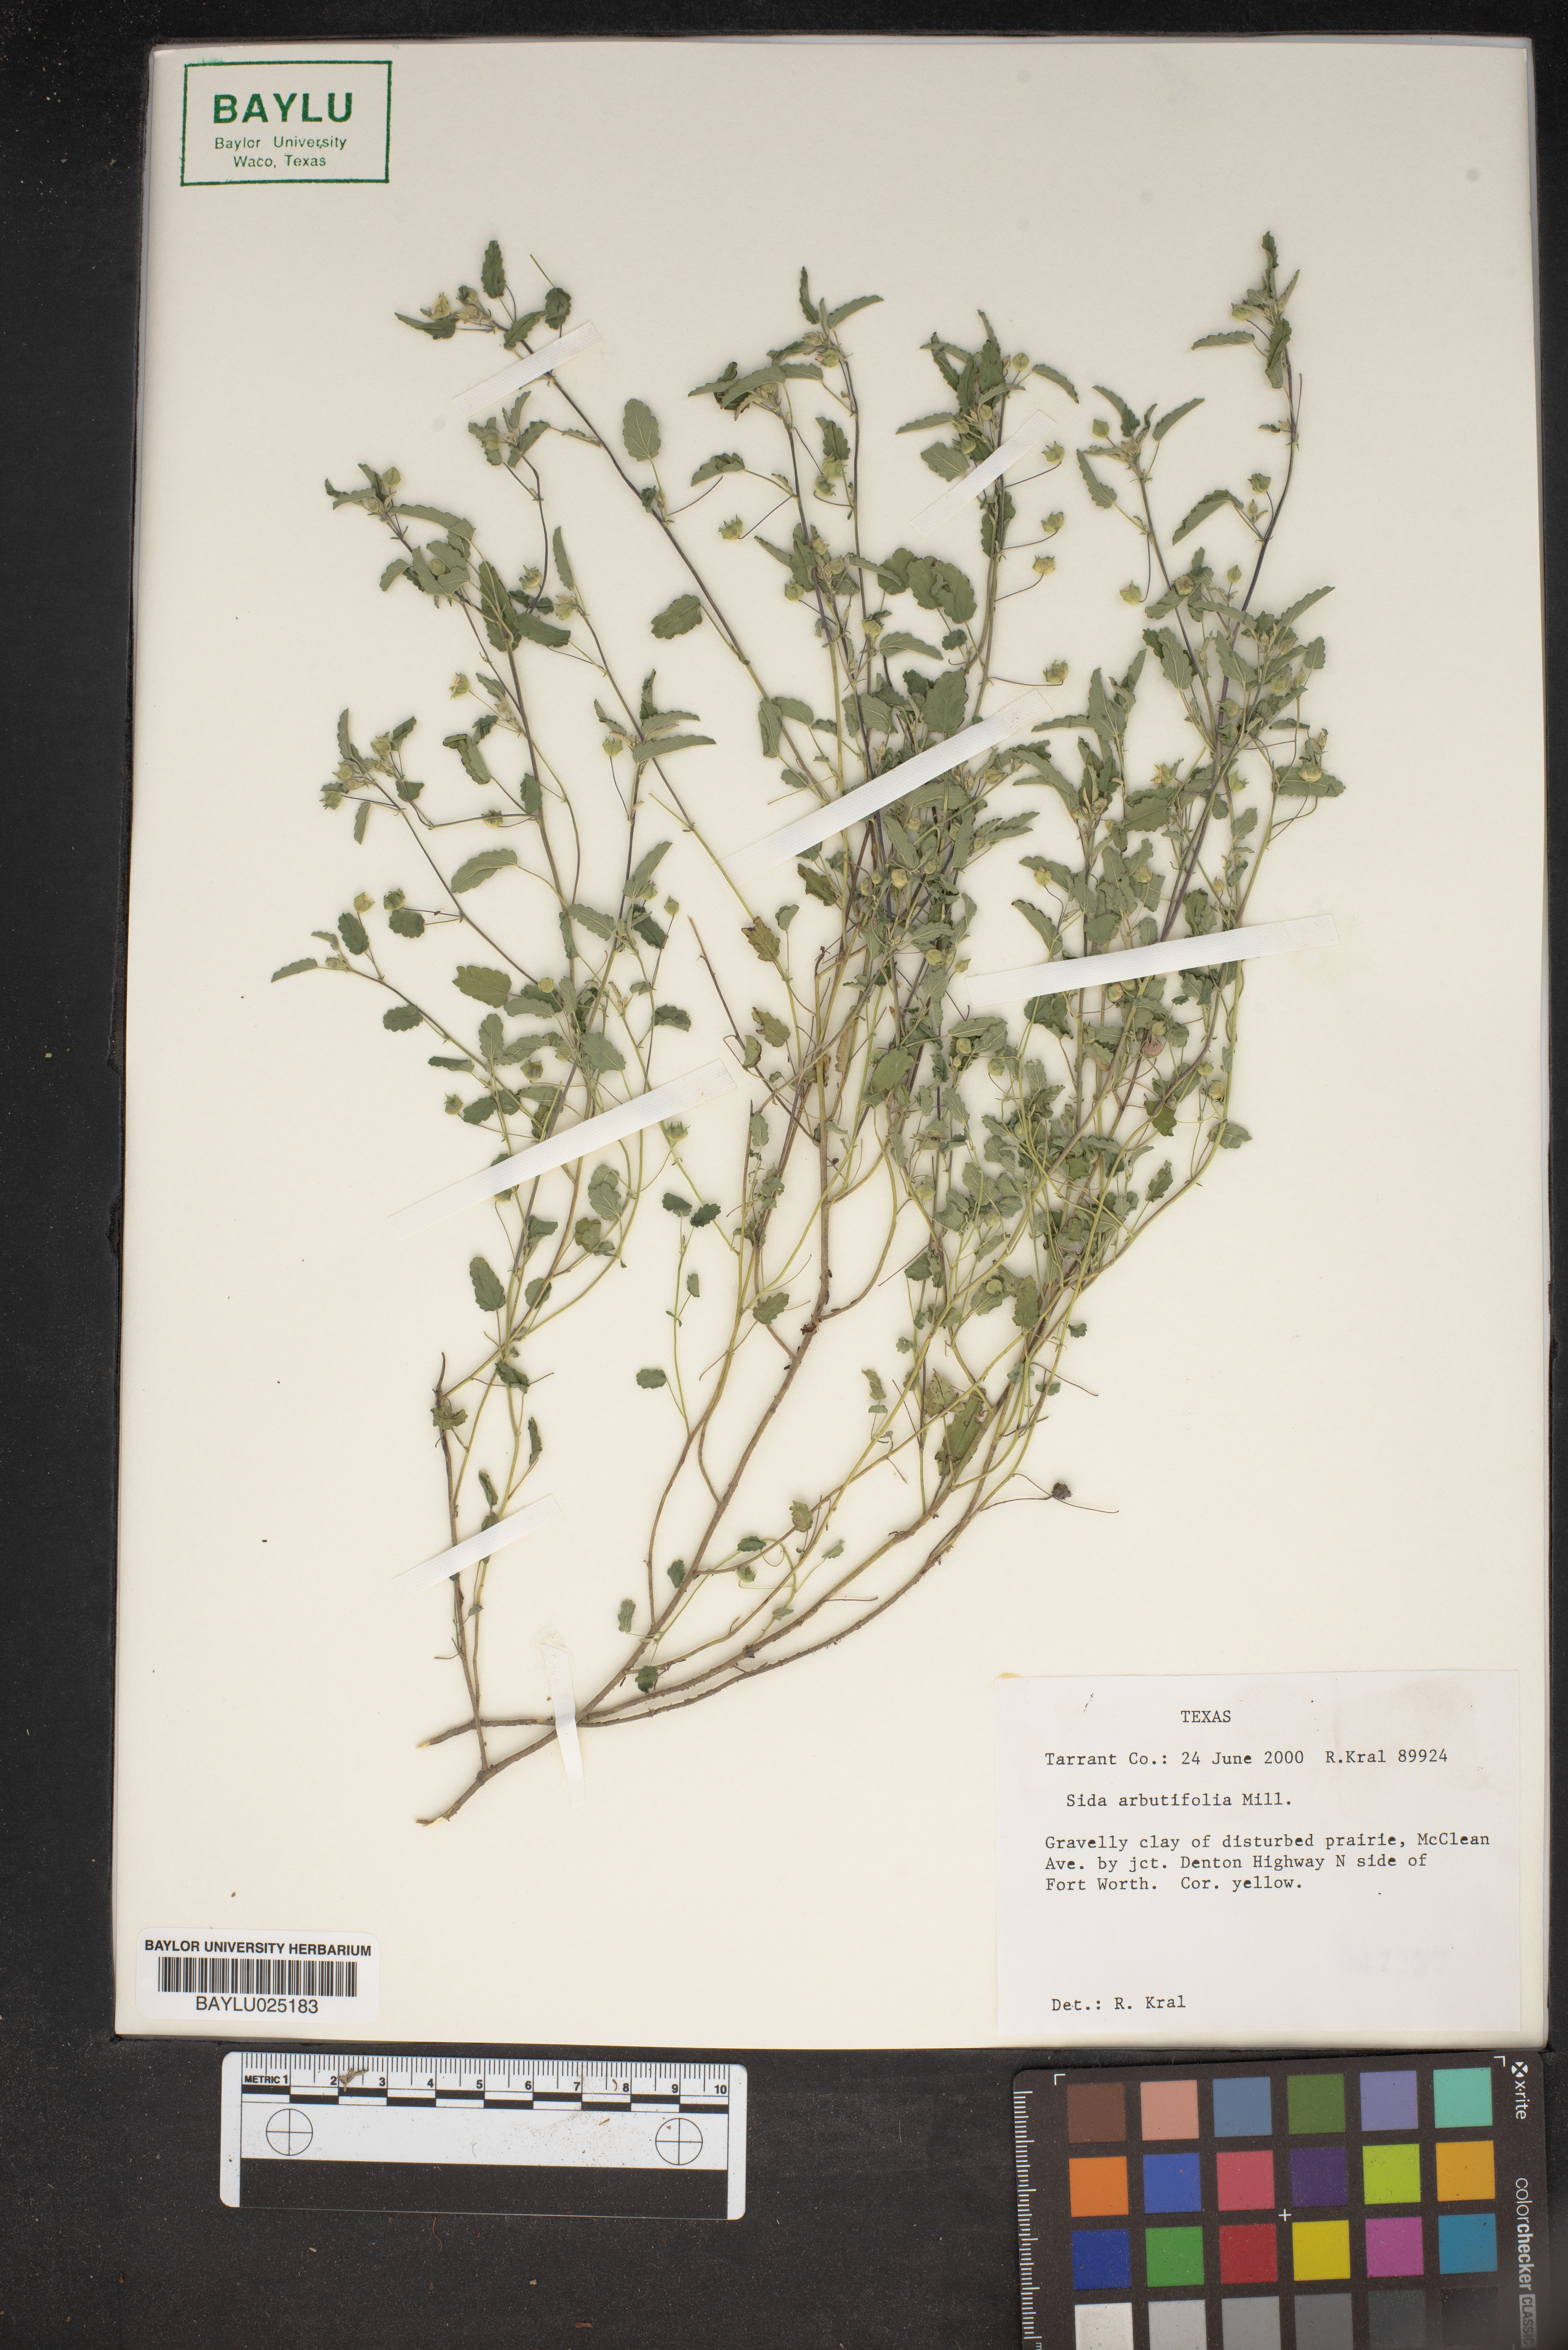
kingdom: Plantae
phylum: Tracheophyta
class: Magnoliopsida
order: Malvales
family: Malvaceae
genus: Sida
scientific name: Sida abutifolia
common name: Spreading fantails
